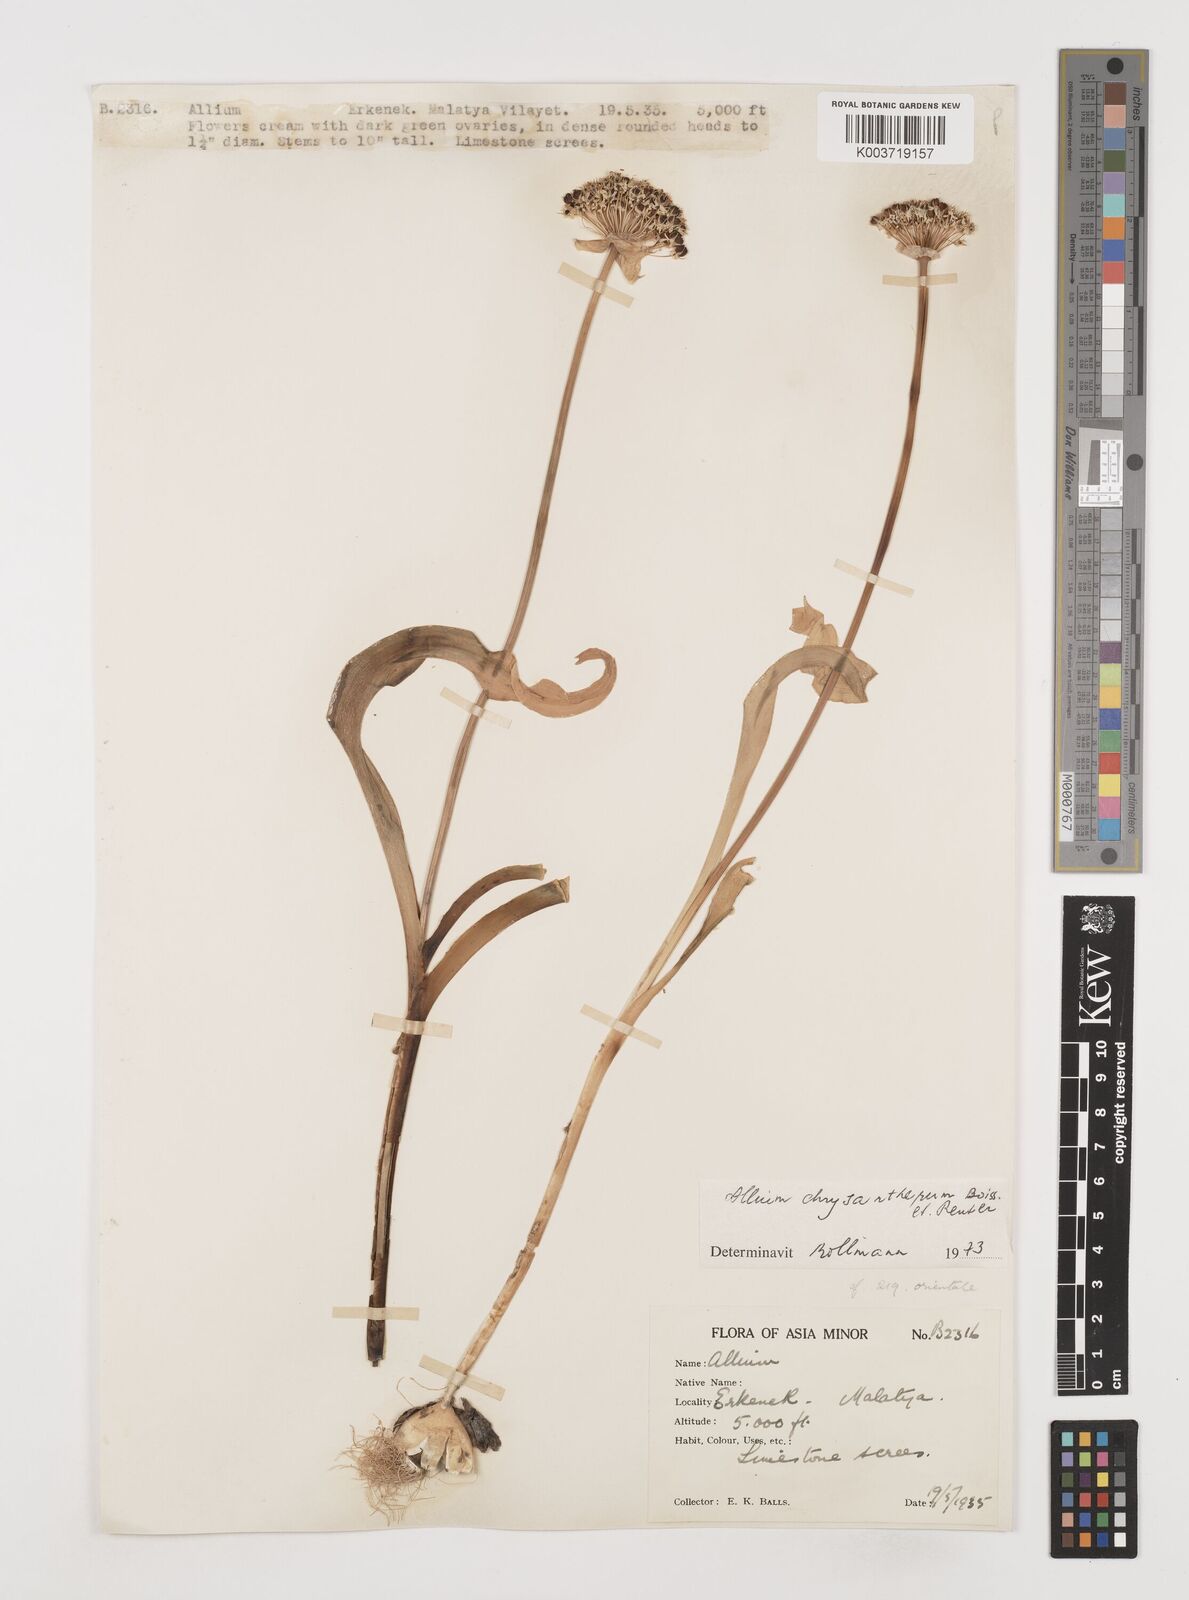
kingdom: Plantae
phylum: Tracheophyta
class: Liliopsida
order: Asparagales
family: Amaryllidaceae
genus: Allium
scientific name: Allium chrysantherum
